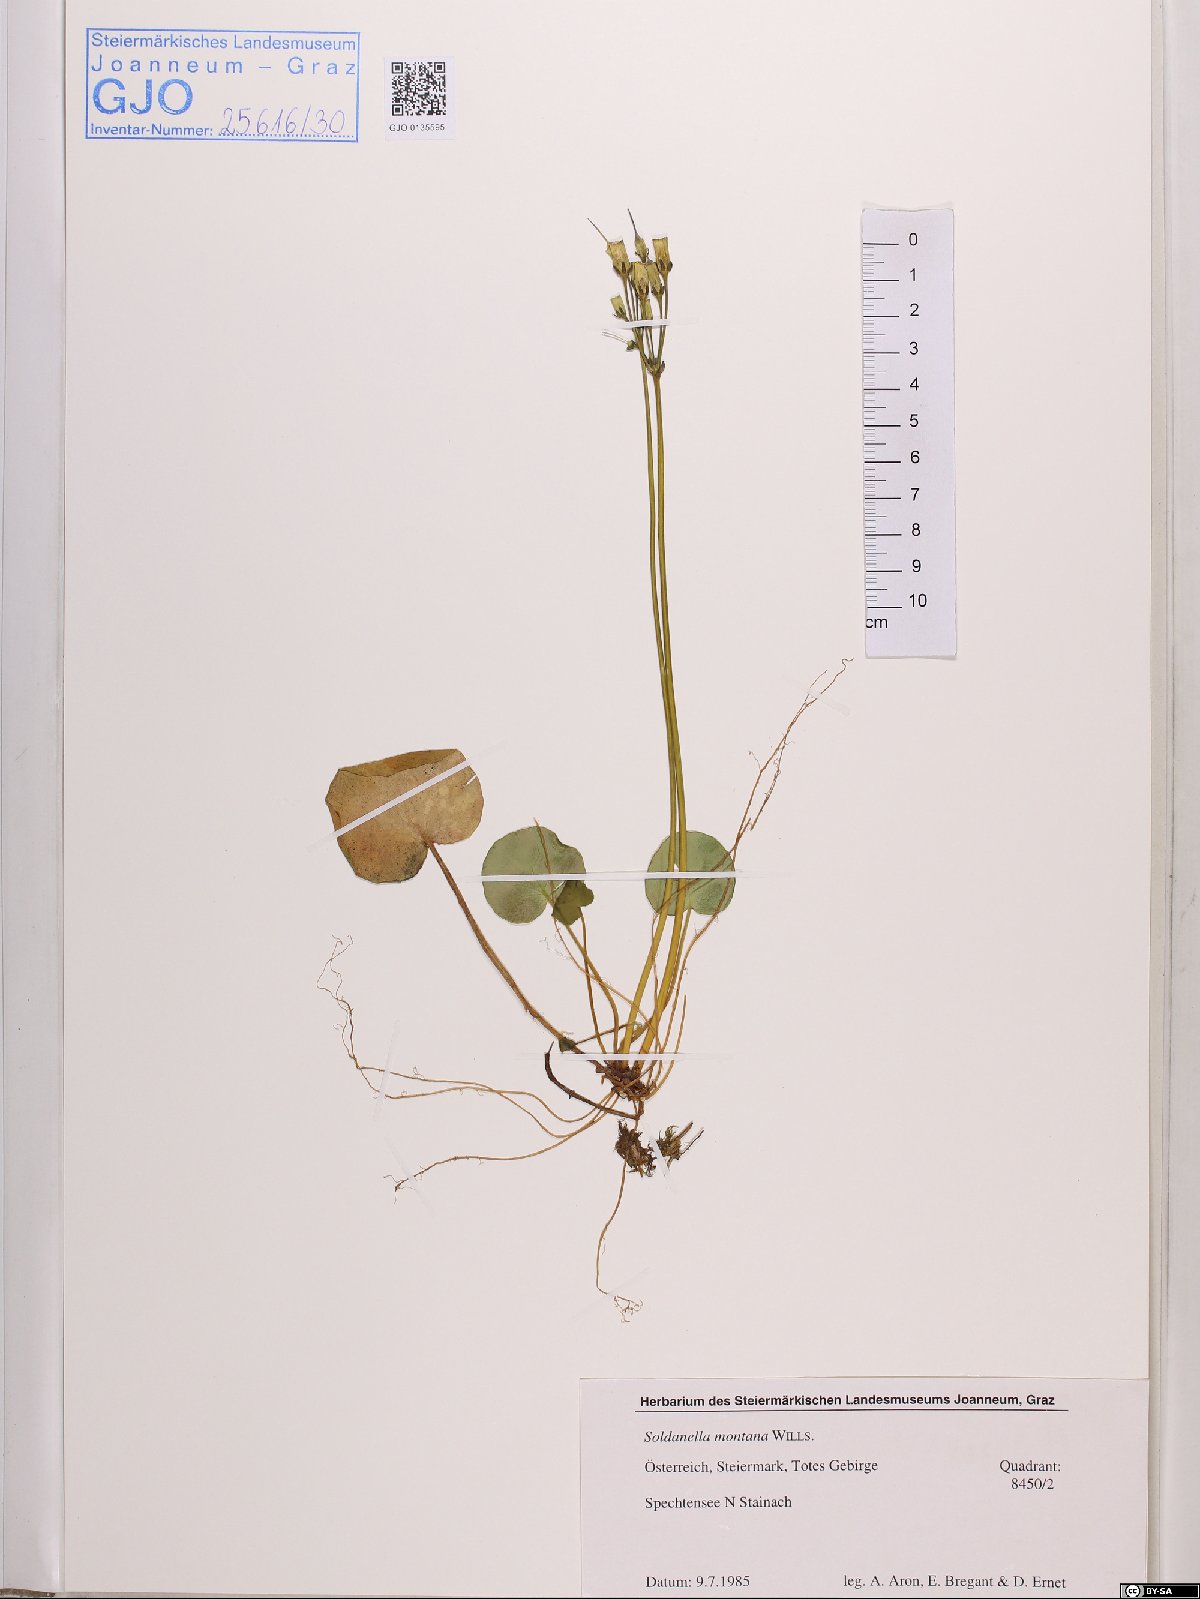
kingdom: Plantae
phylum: Tracheophyta
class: Magnoliopsida
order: Ericales
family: Primulaceae
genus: Soldanella
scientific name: Soldanella montana
